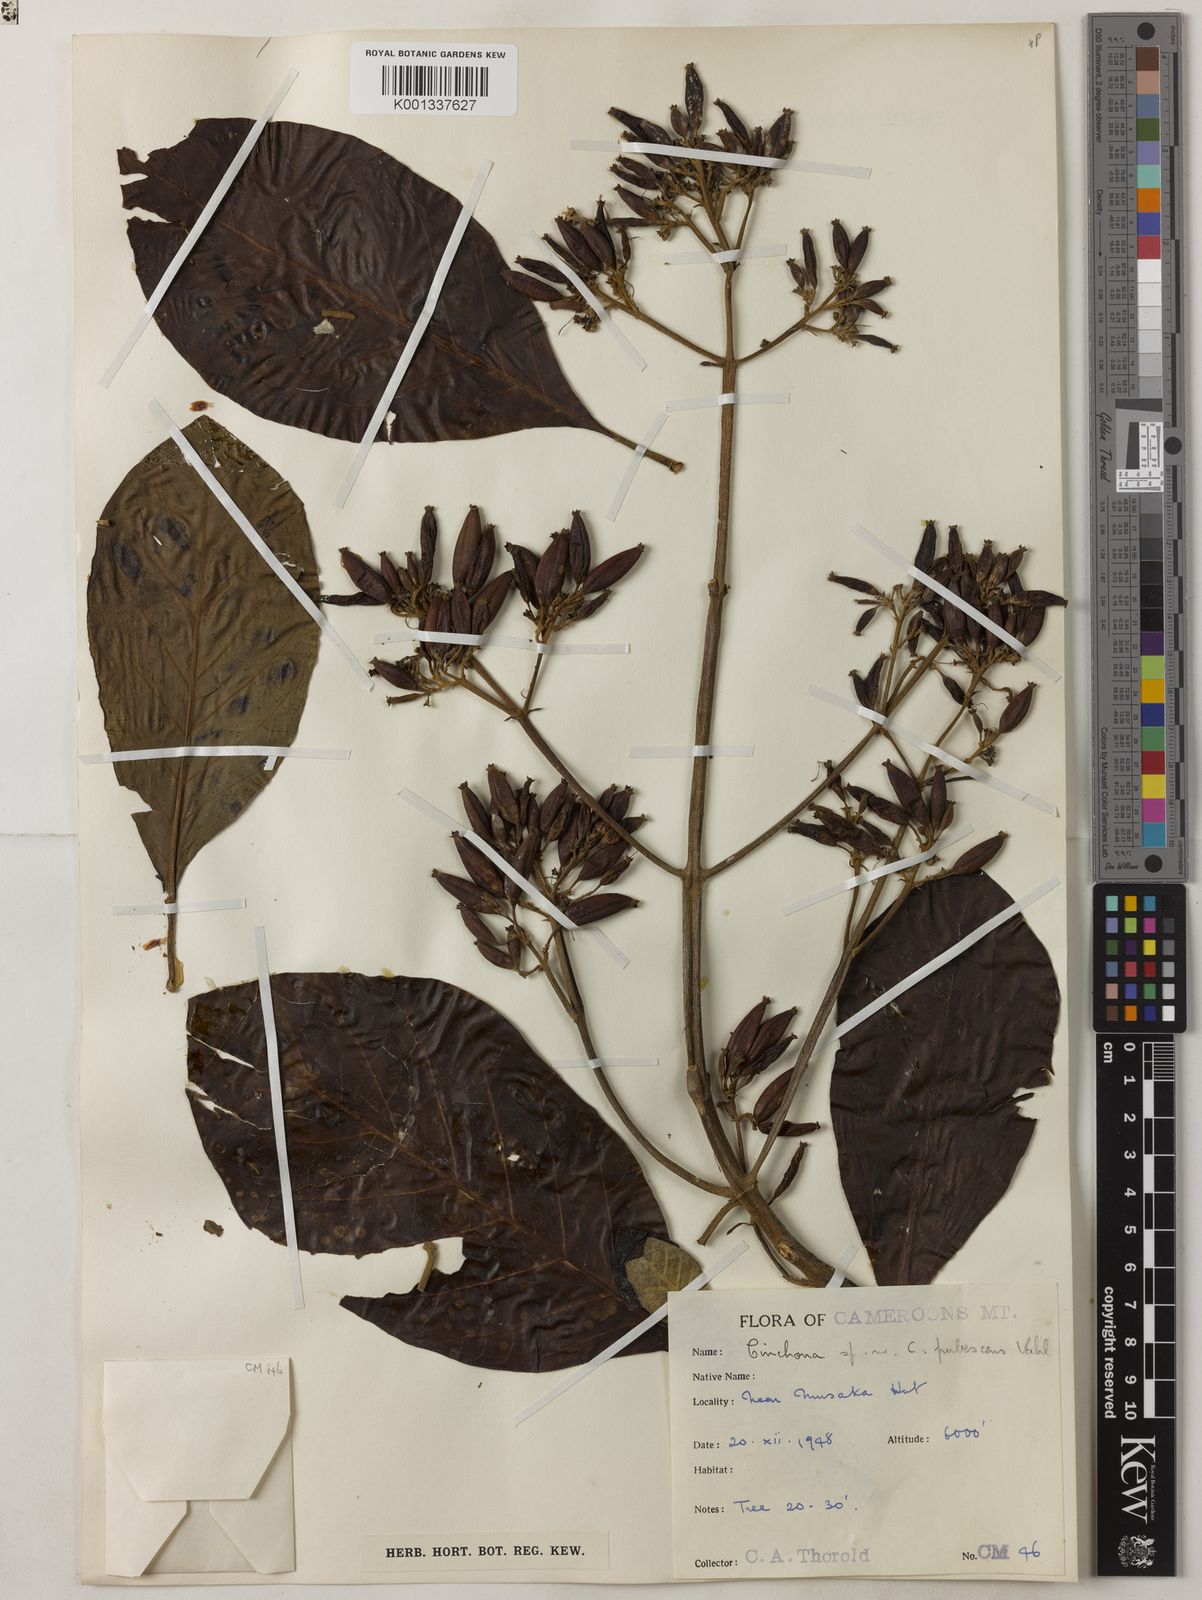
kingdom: Plantae
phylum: Tracheophyta
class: Magnoliopsida
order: Gentianales
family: Rubiaceae
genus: Cinchona
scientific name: Cinchona pubescens
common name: Quinine
